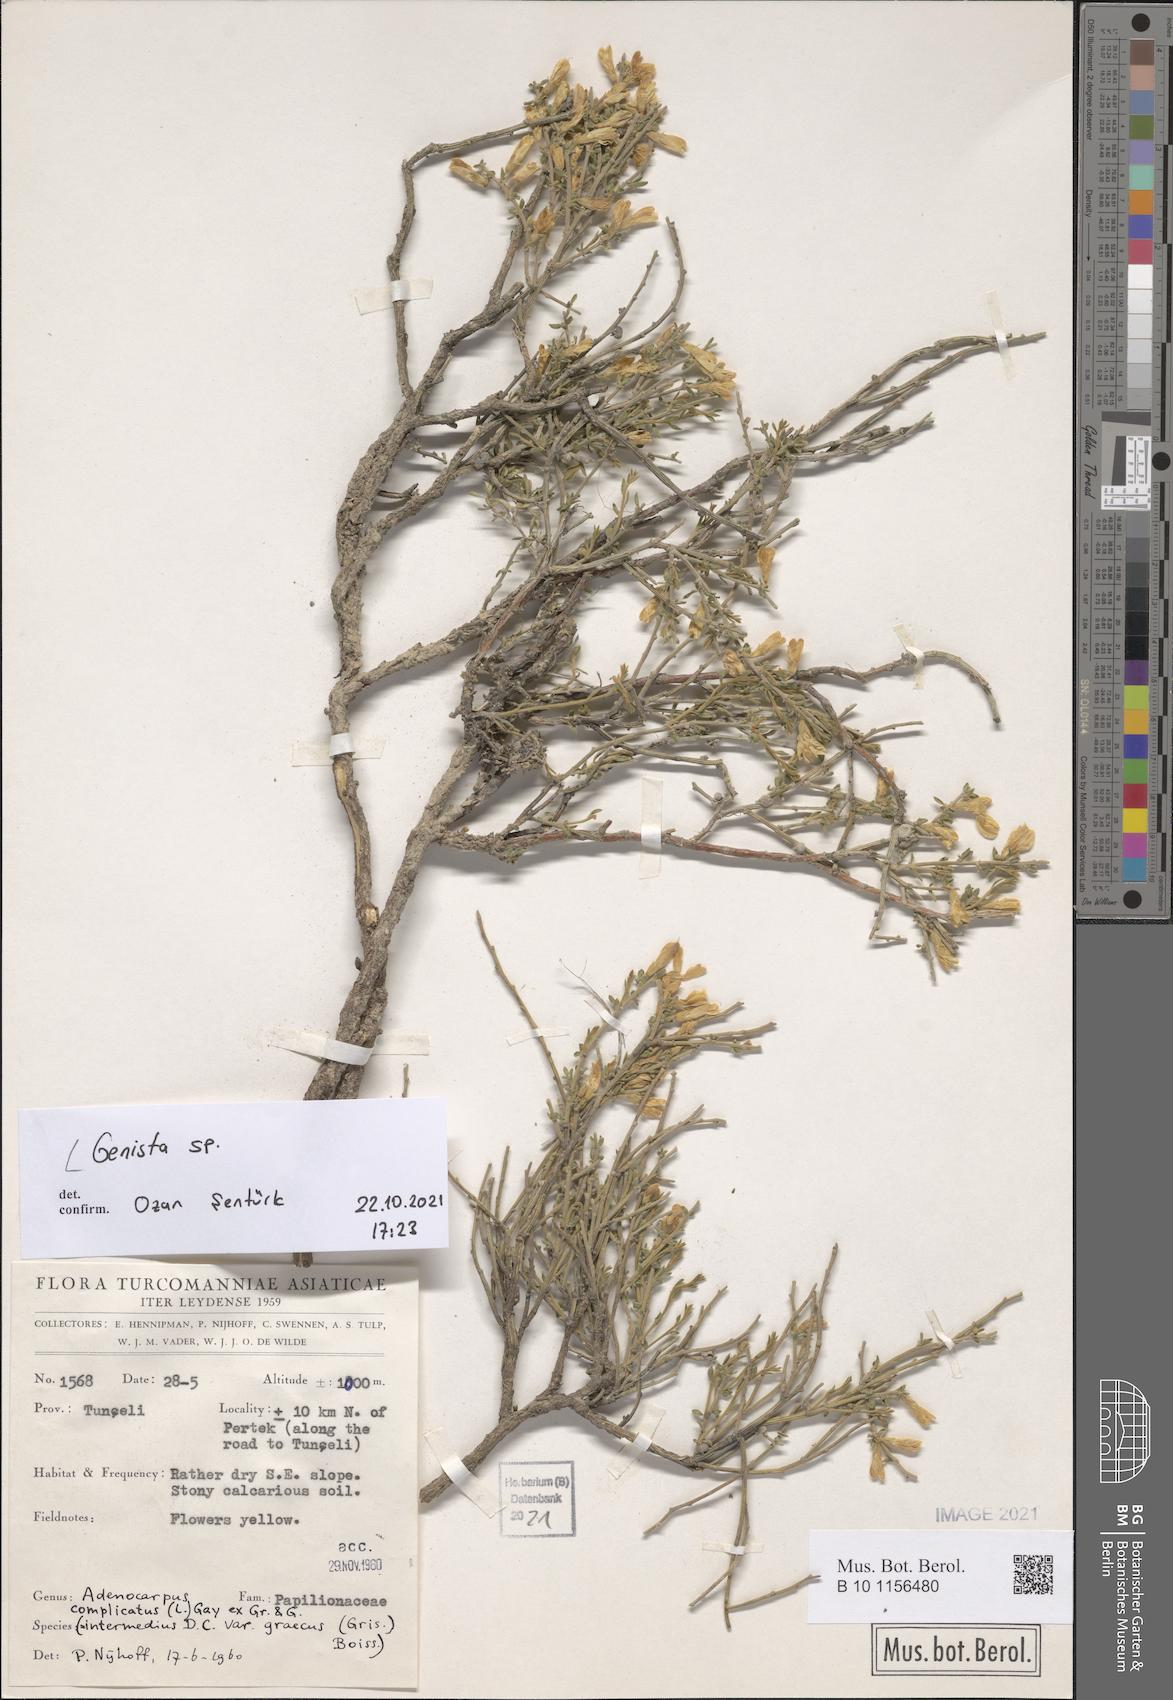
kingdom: Plantae
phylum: Tracheophyta
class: Magnoliopsida
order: Fabales
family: Fabaceae
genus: Genista
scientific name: Genista
